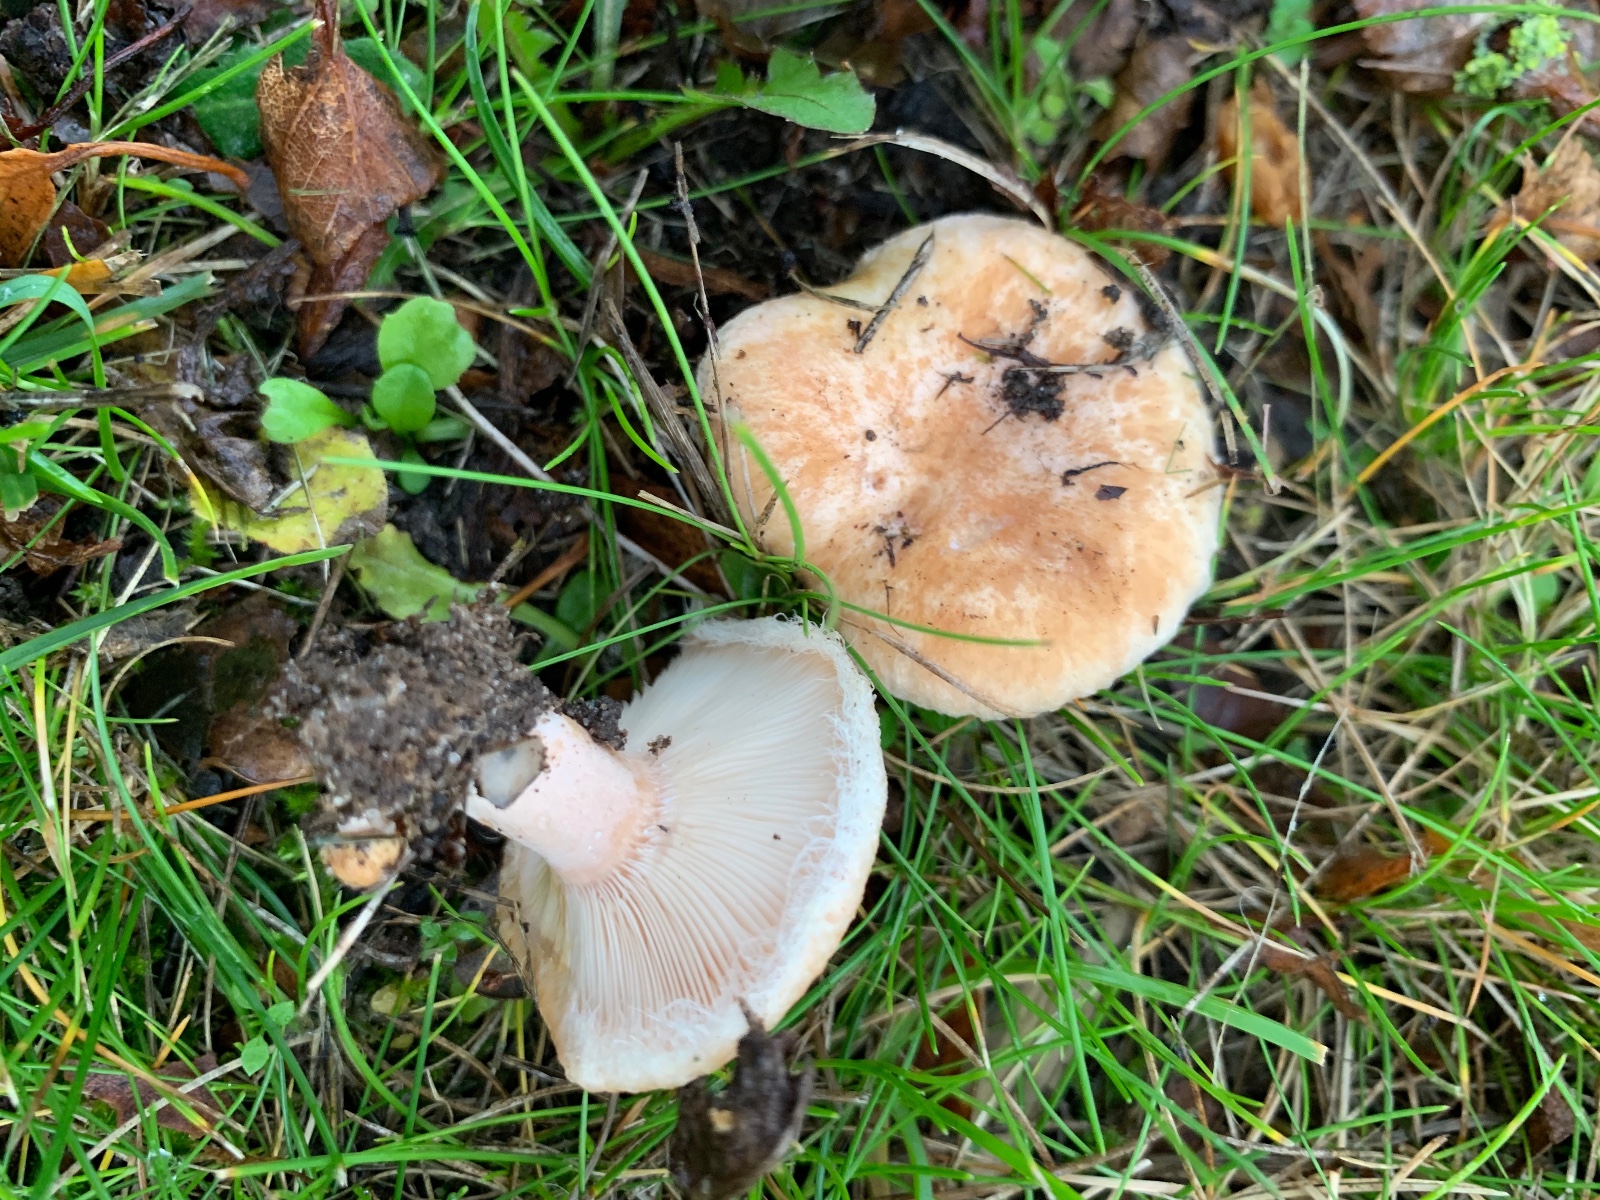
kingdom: Fungi
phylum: Basidiomycota
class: Agaricomycetes
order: Russulales
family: Russulaceae
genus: Lactarius
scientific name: Lactarius pubescens
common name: dunet mælkehat
